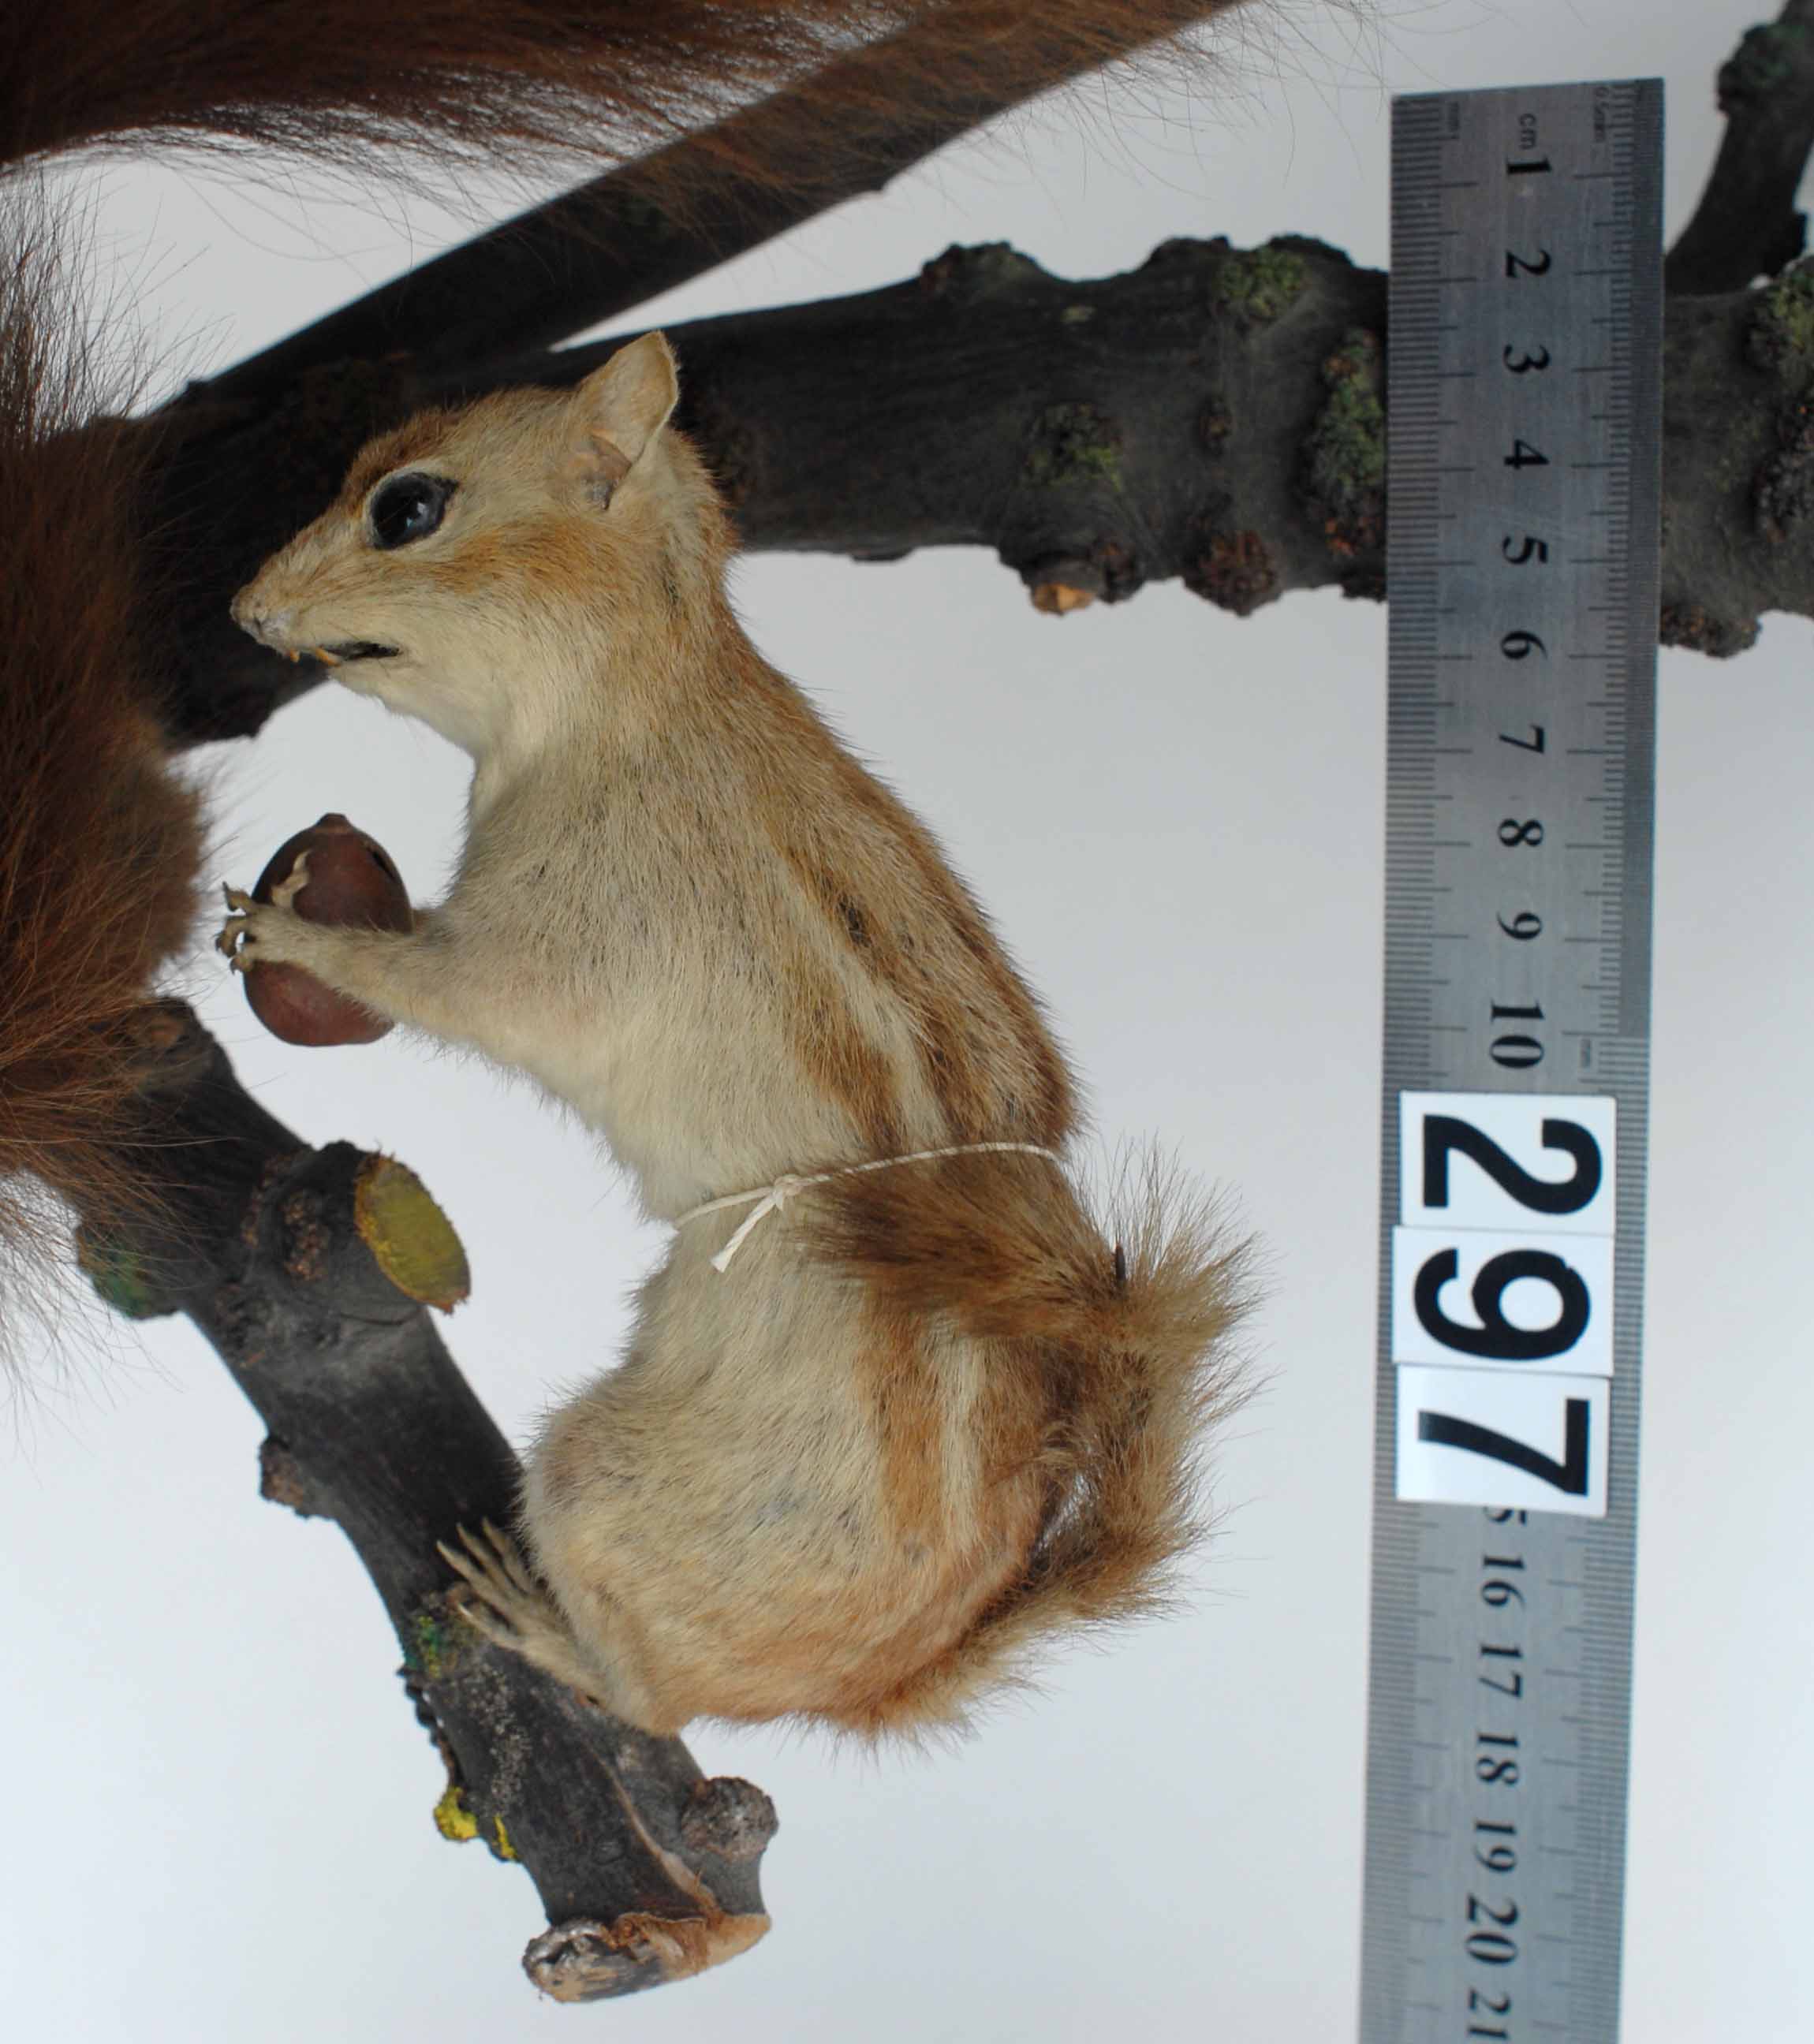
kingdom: Animalia
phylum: Chordata
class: Mammalia
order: Rodentia
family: Sciuridae
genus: Tamias
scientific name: Tamias striatus
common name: Eastern chipmunk
